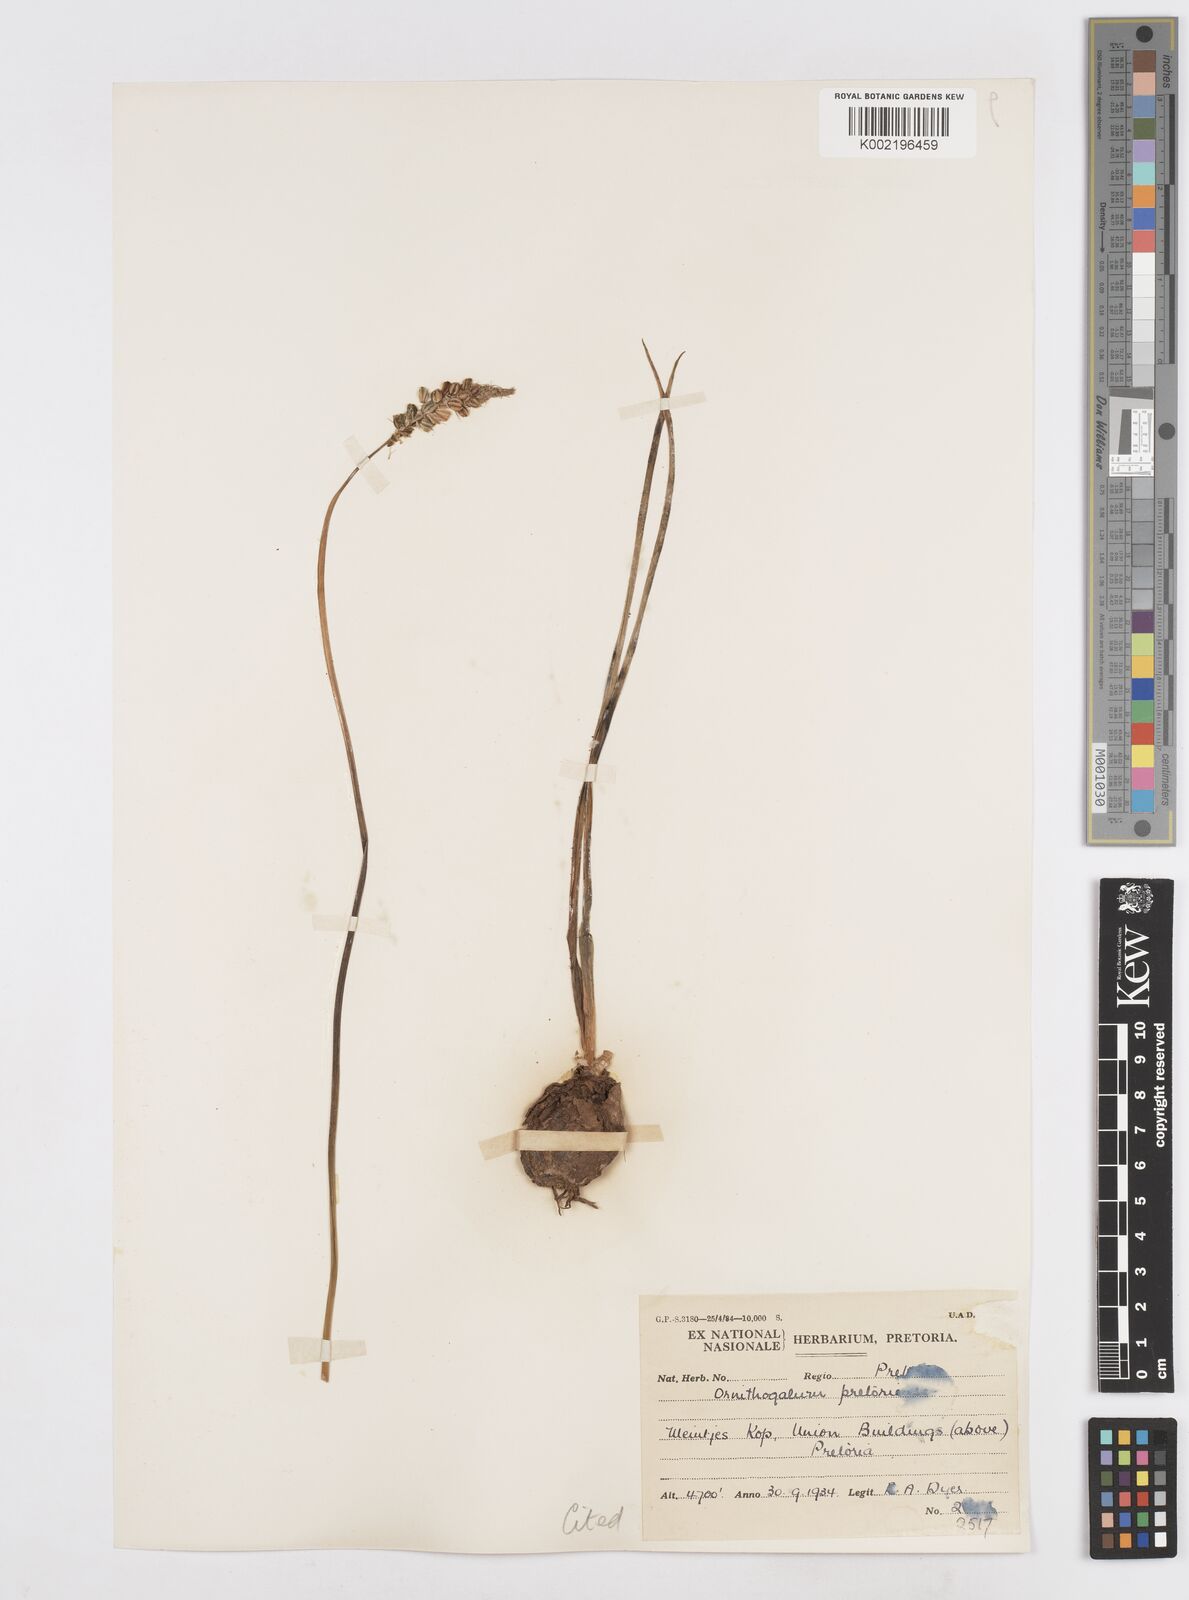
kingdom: Plantae
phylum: Tracheophyta
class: Liliopsida
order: Asparagales
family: Asparagaceae
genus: Albuca
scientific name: Albuca virens
